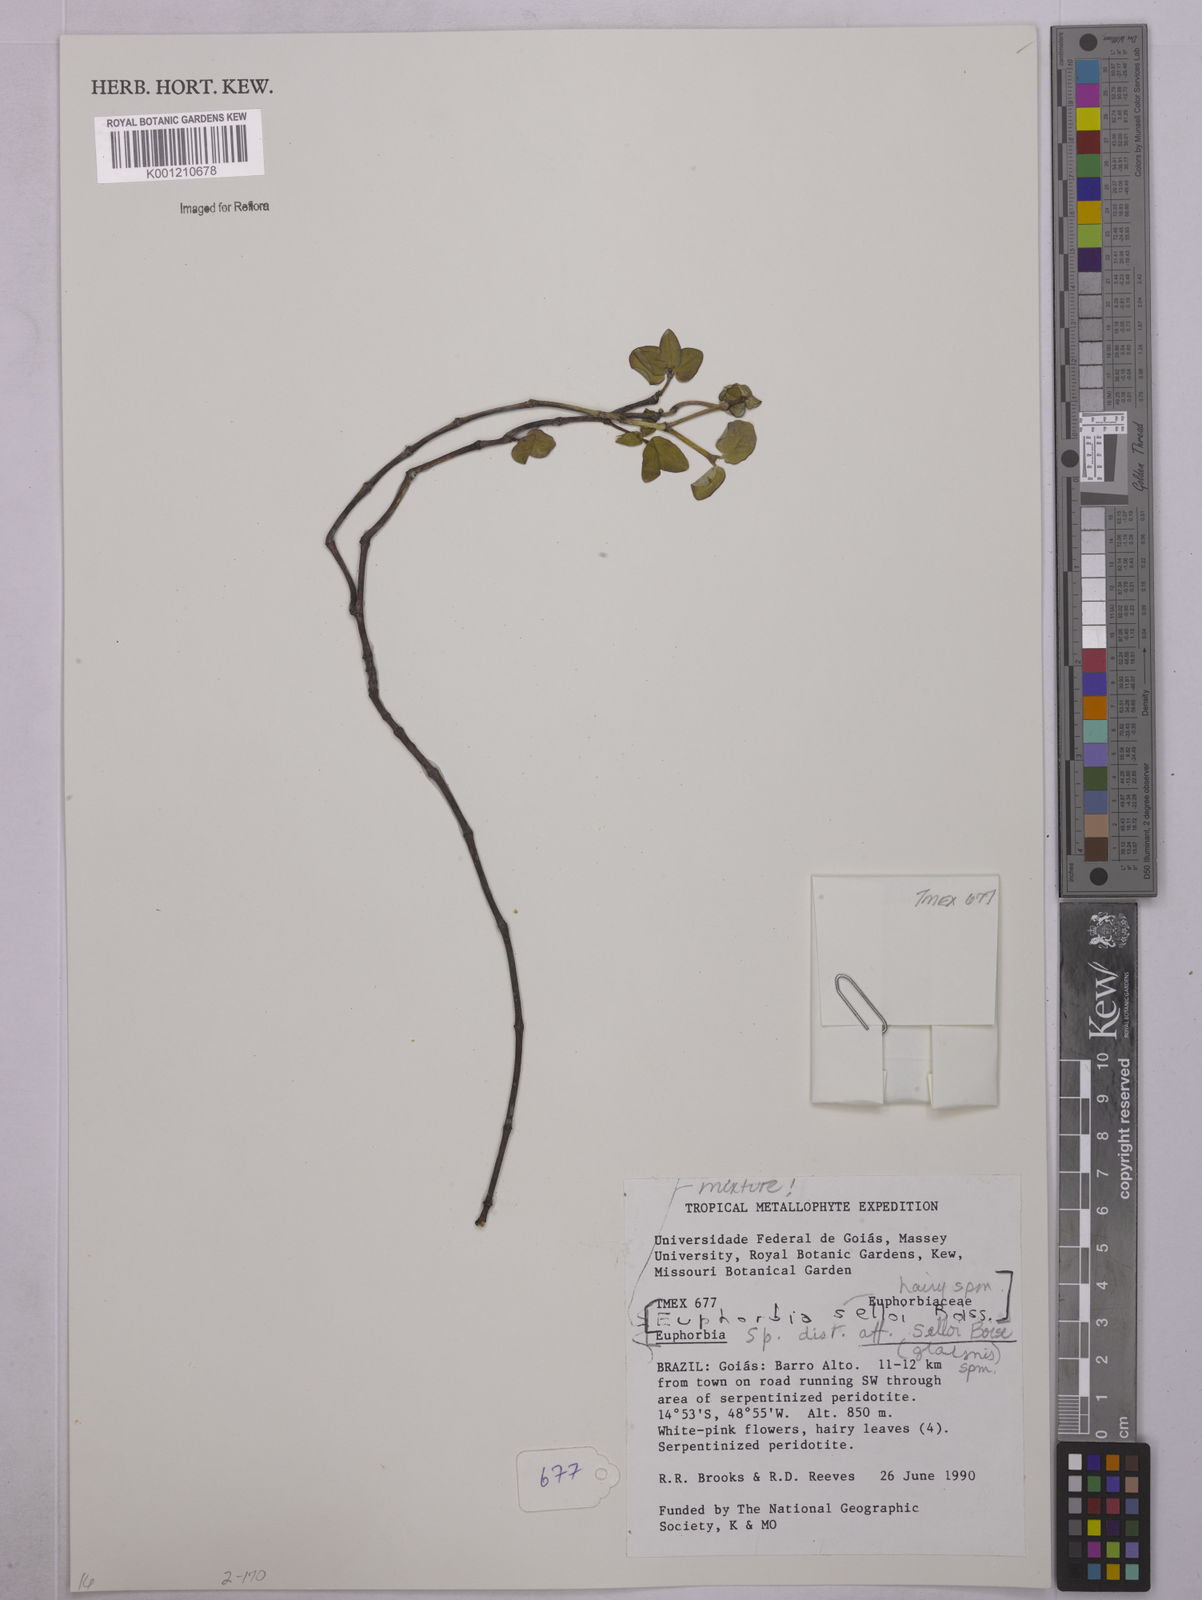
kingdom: Plantae
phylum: Tracheophyta
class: Magnoliopsida
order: Malpighiales
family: Euphorbiaceae
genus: Euphorbia
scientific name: Euphorbia selloi
